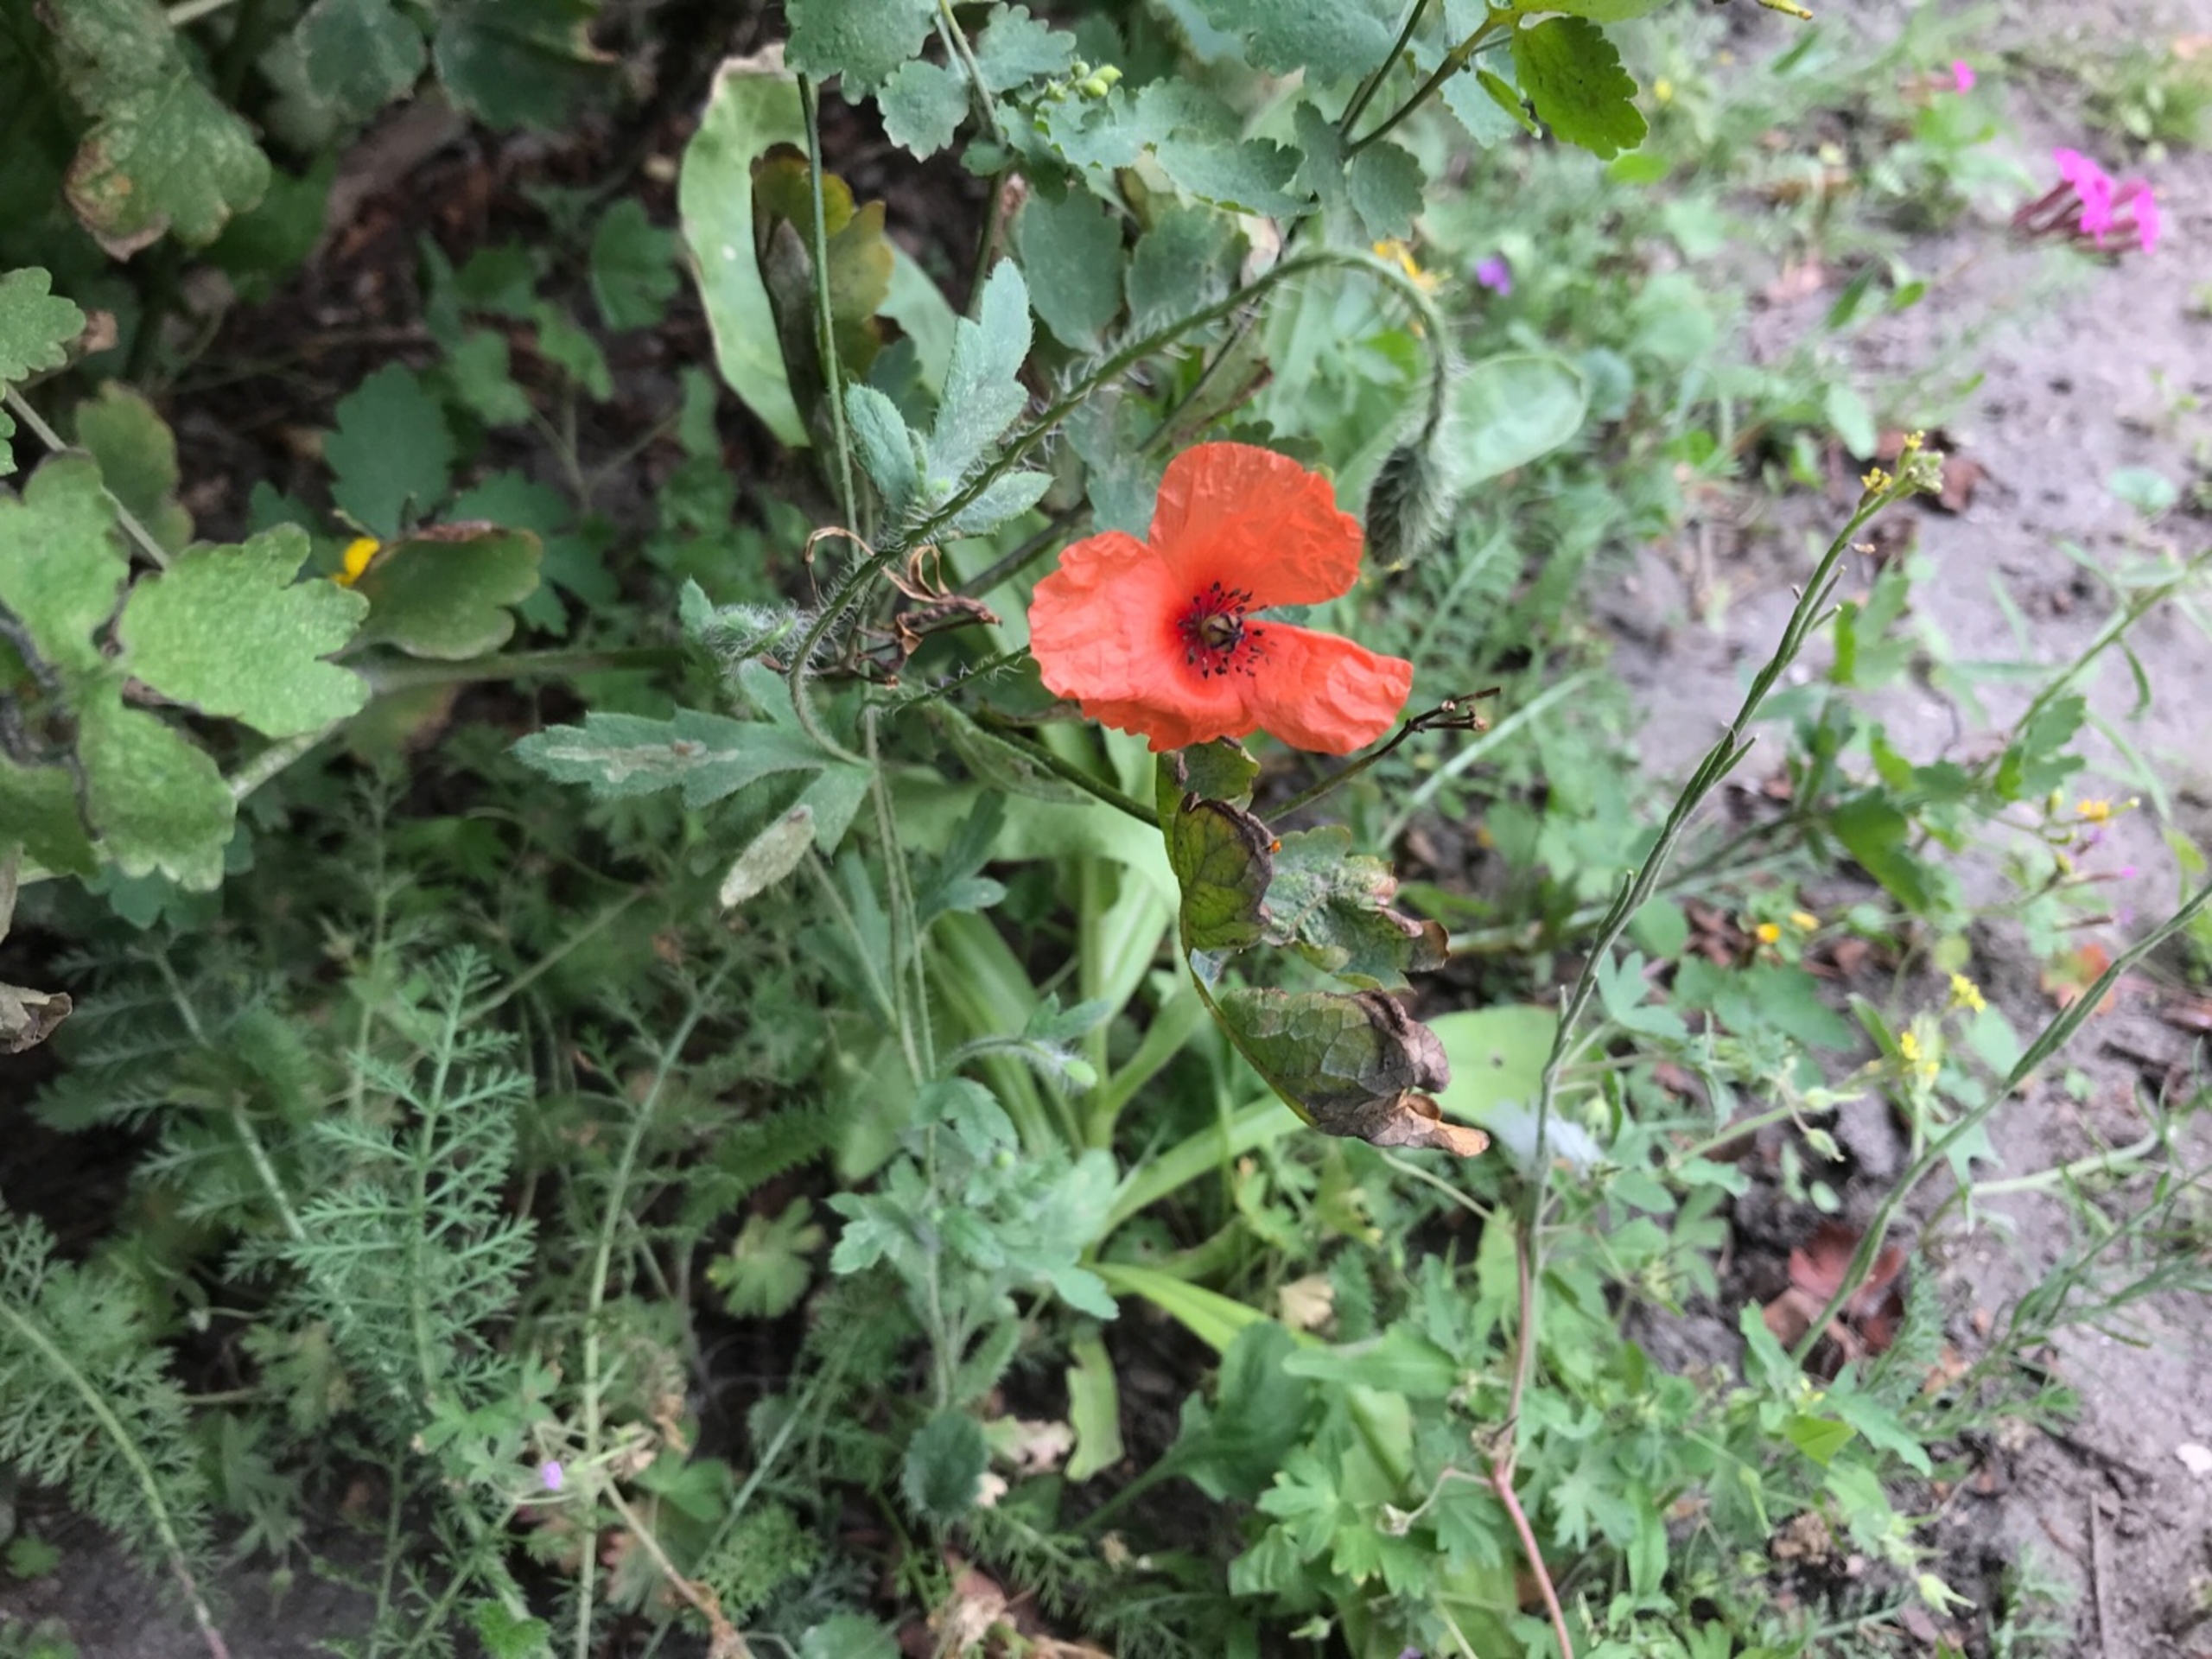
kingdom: Plantae
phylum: Tracheophyta
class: Magnoliopsida
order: Ranunculales
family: Papaveraceae
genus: Papaver
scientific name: Papaver rhoeas
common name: Korn-valmue
